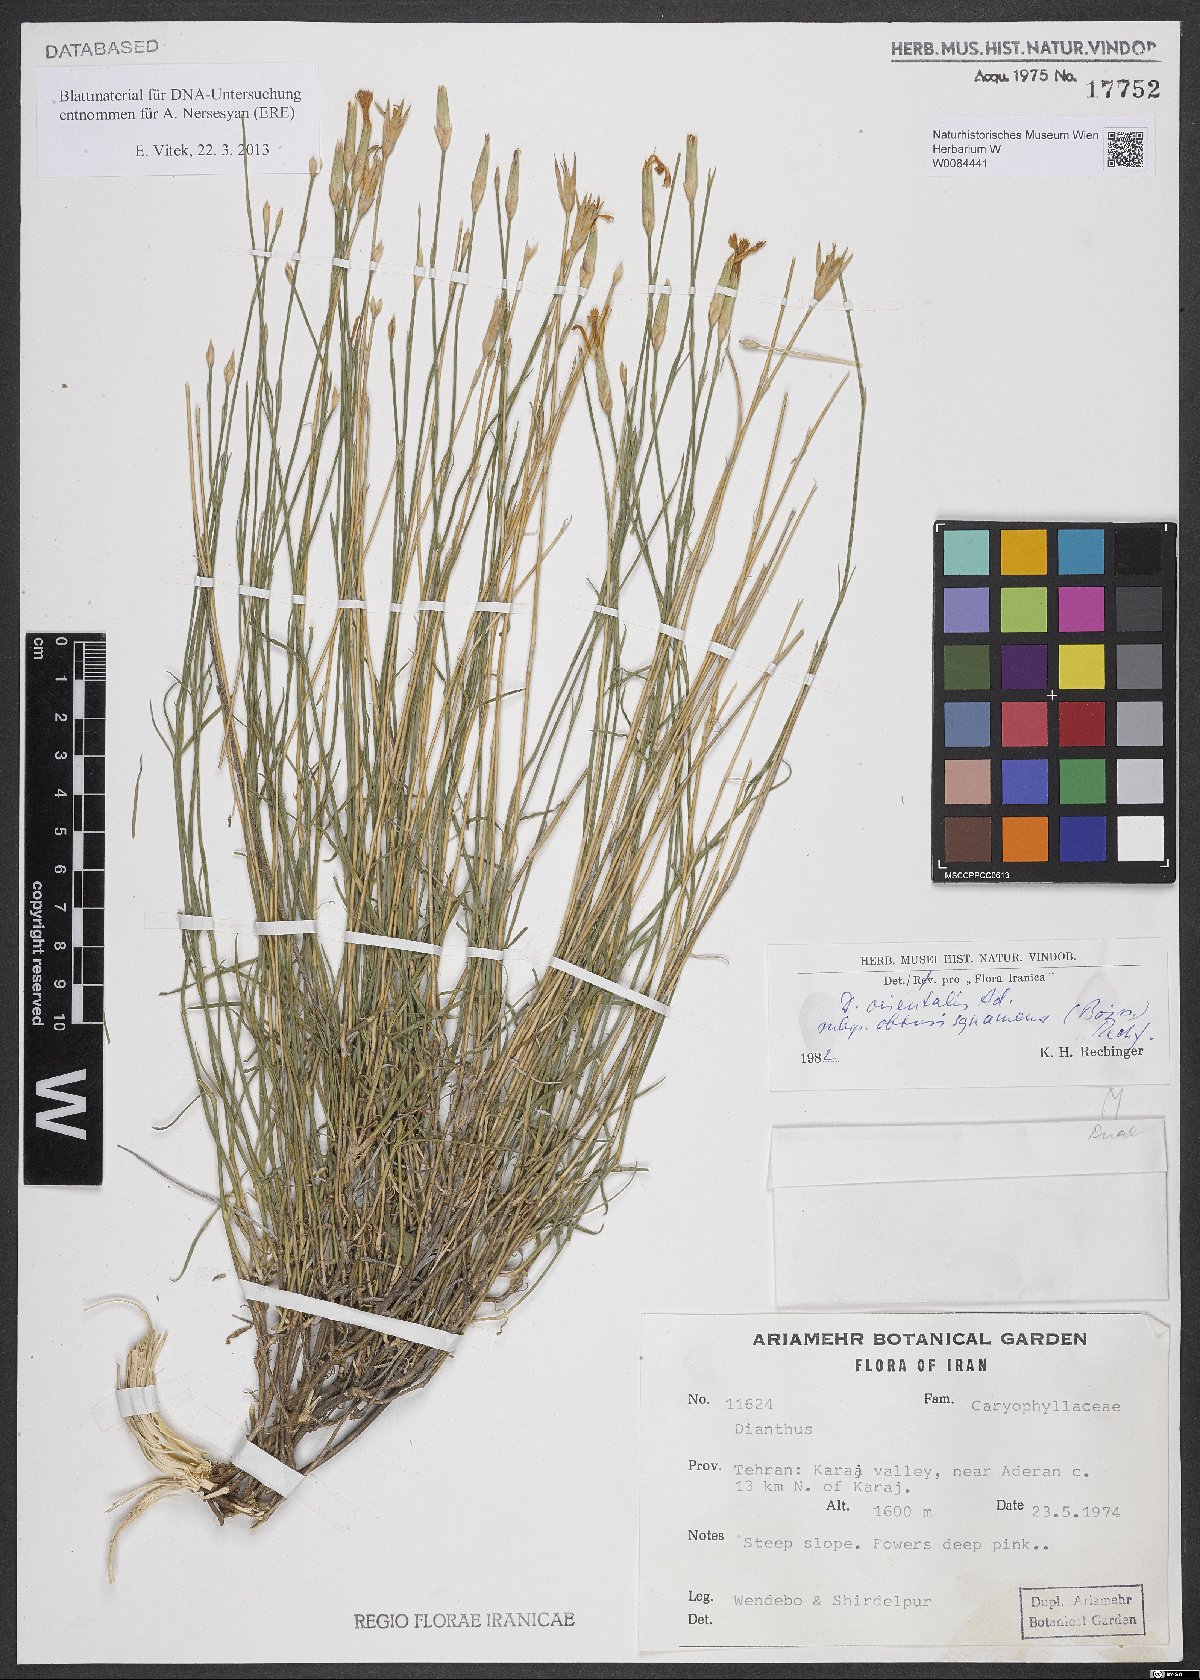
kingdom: Plantae
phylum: Tracheophyta
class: Magnoliopsida
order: Caryophyllales
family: Caryophyllaceae
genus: Dianthus
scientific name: Dianthus orientalis
